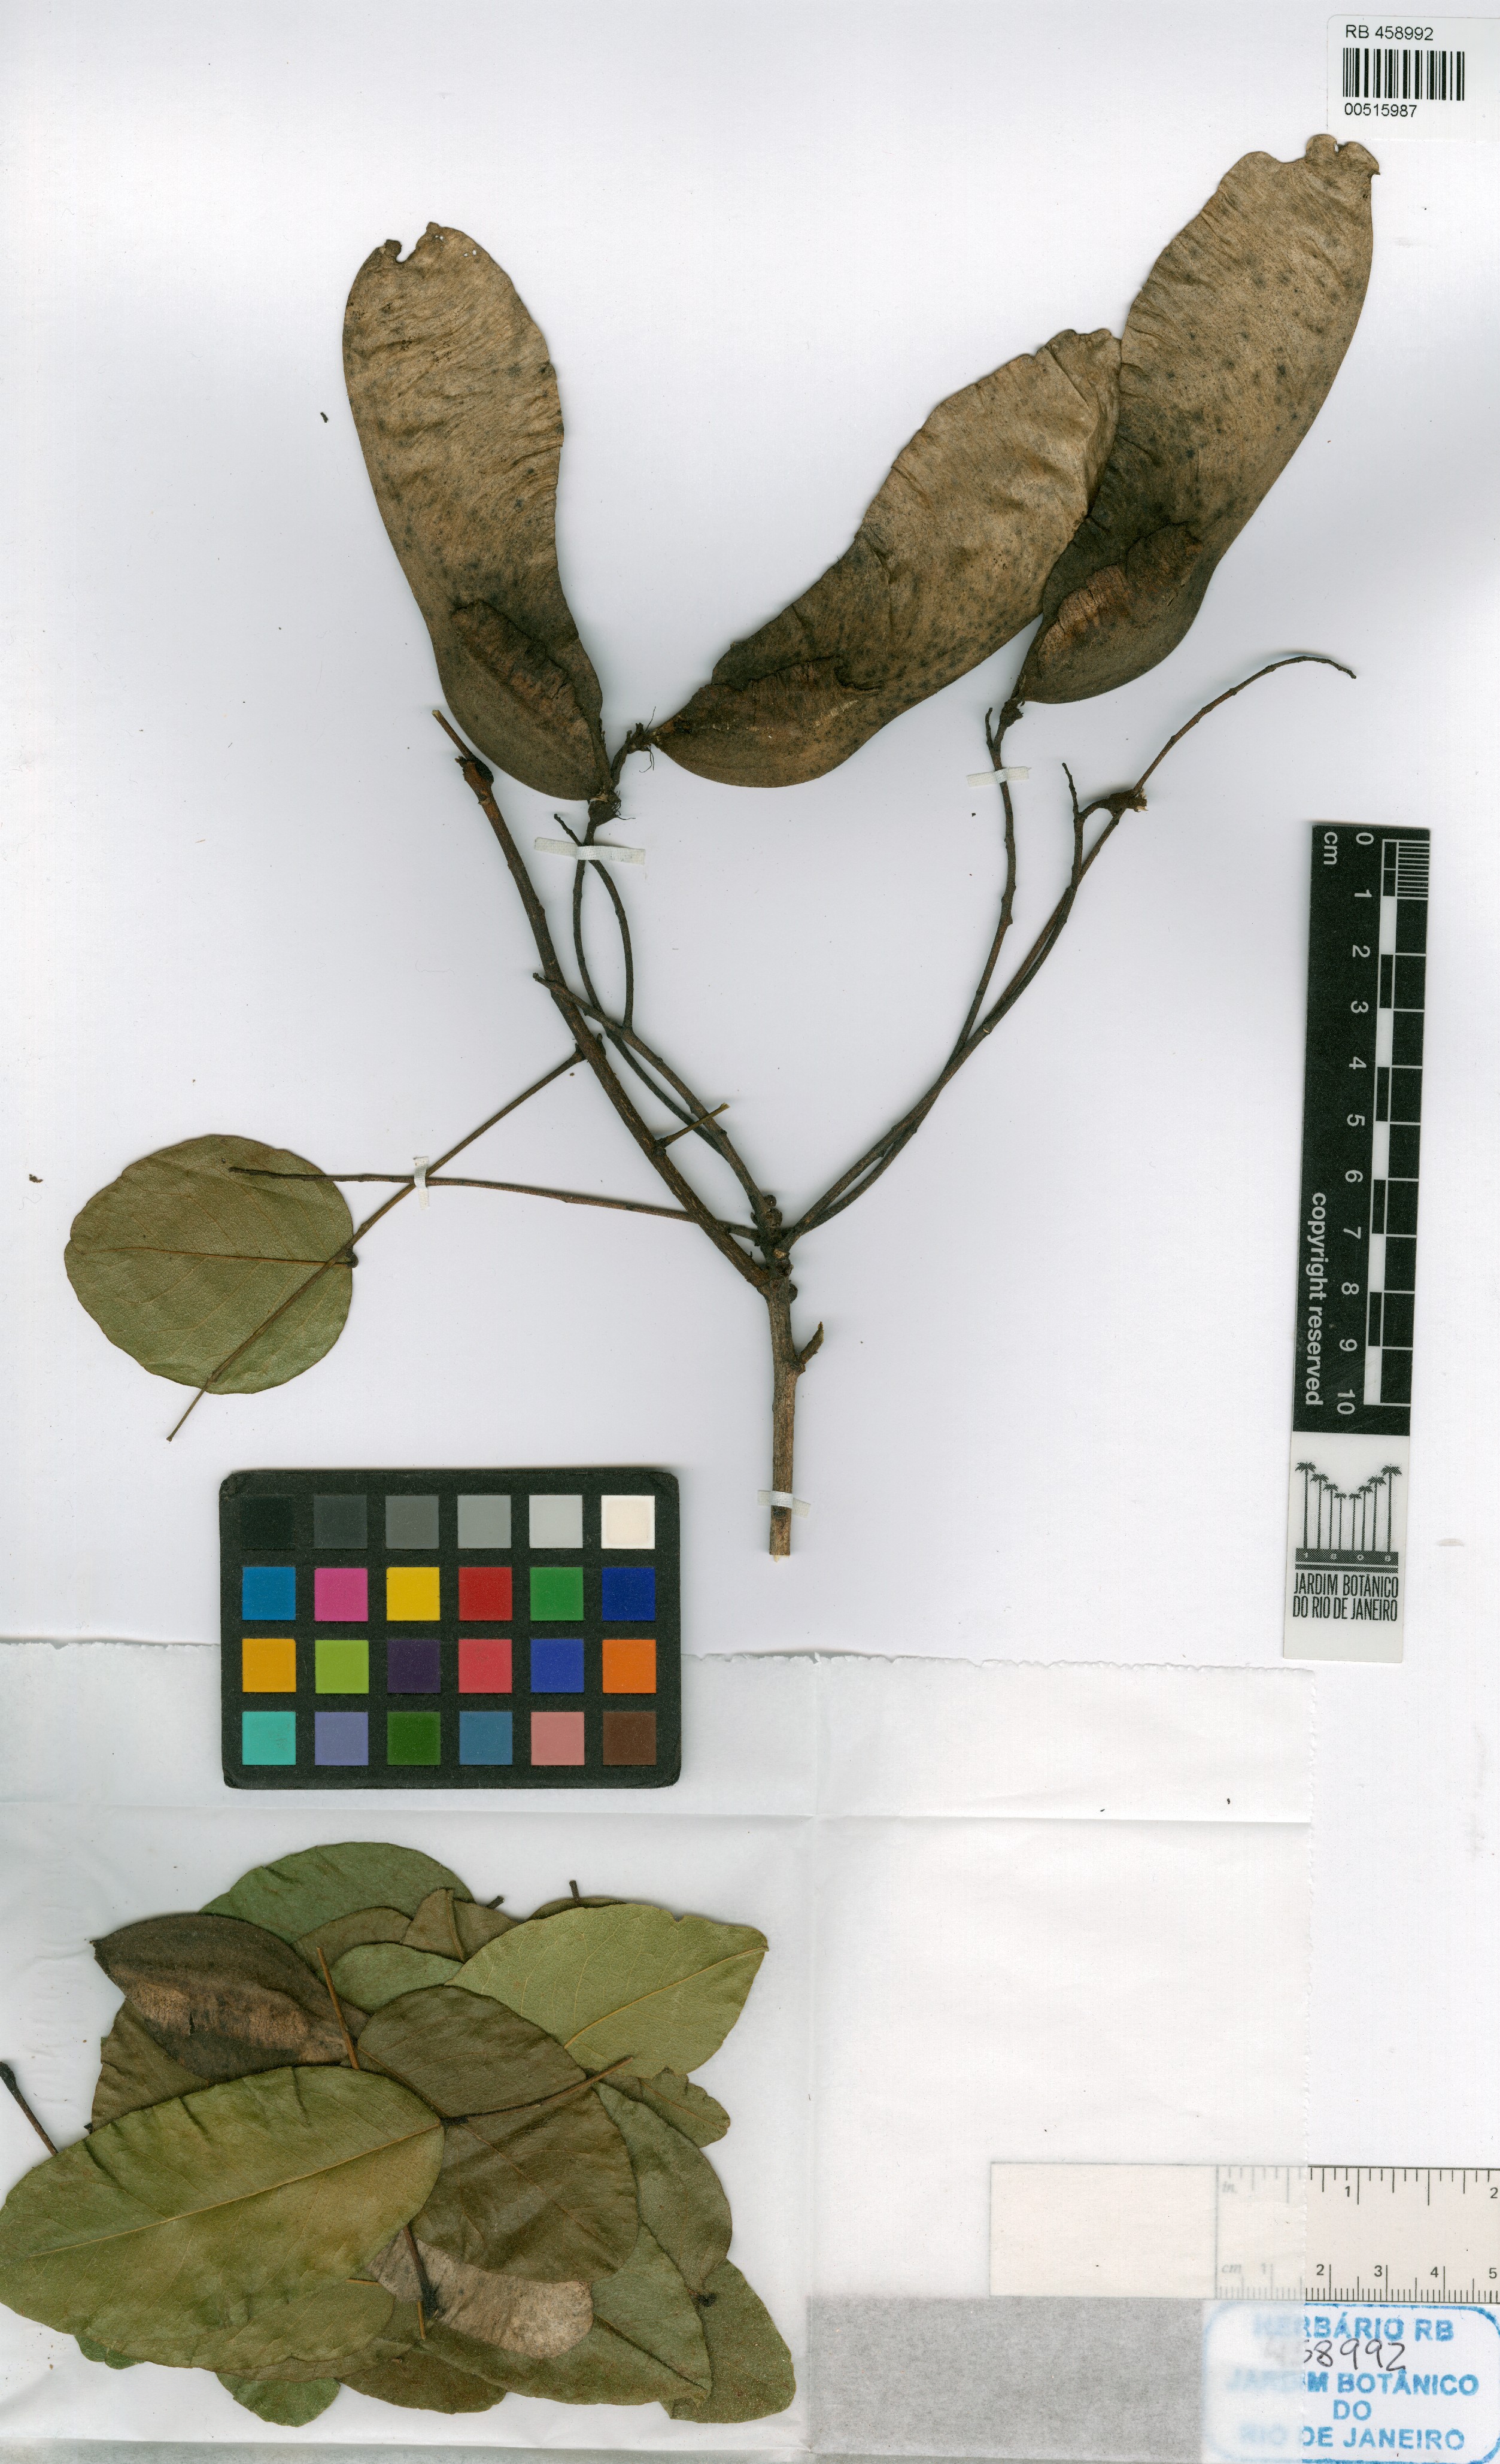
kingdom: Plantae
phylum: Tracheophyta
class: Magnoliopsida
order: Fabales
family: Fabaceae
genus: Luetzelburgia
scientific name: Luetzelburgia guianensis
